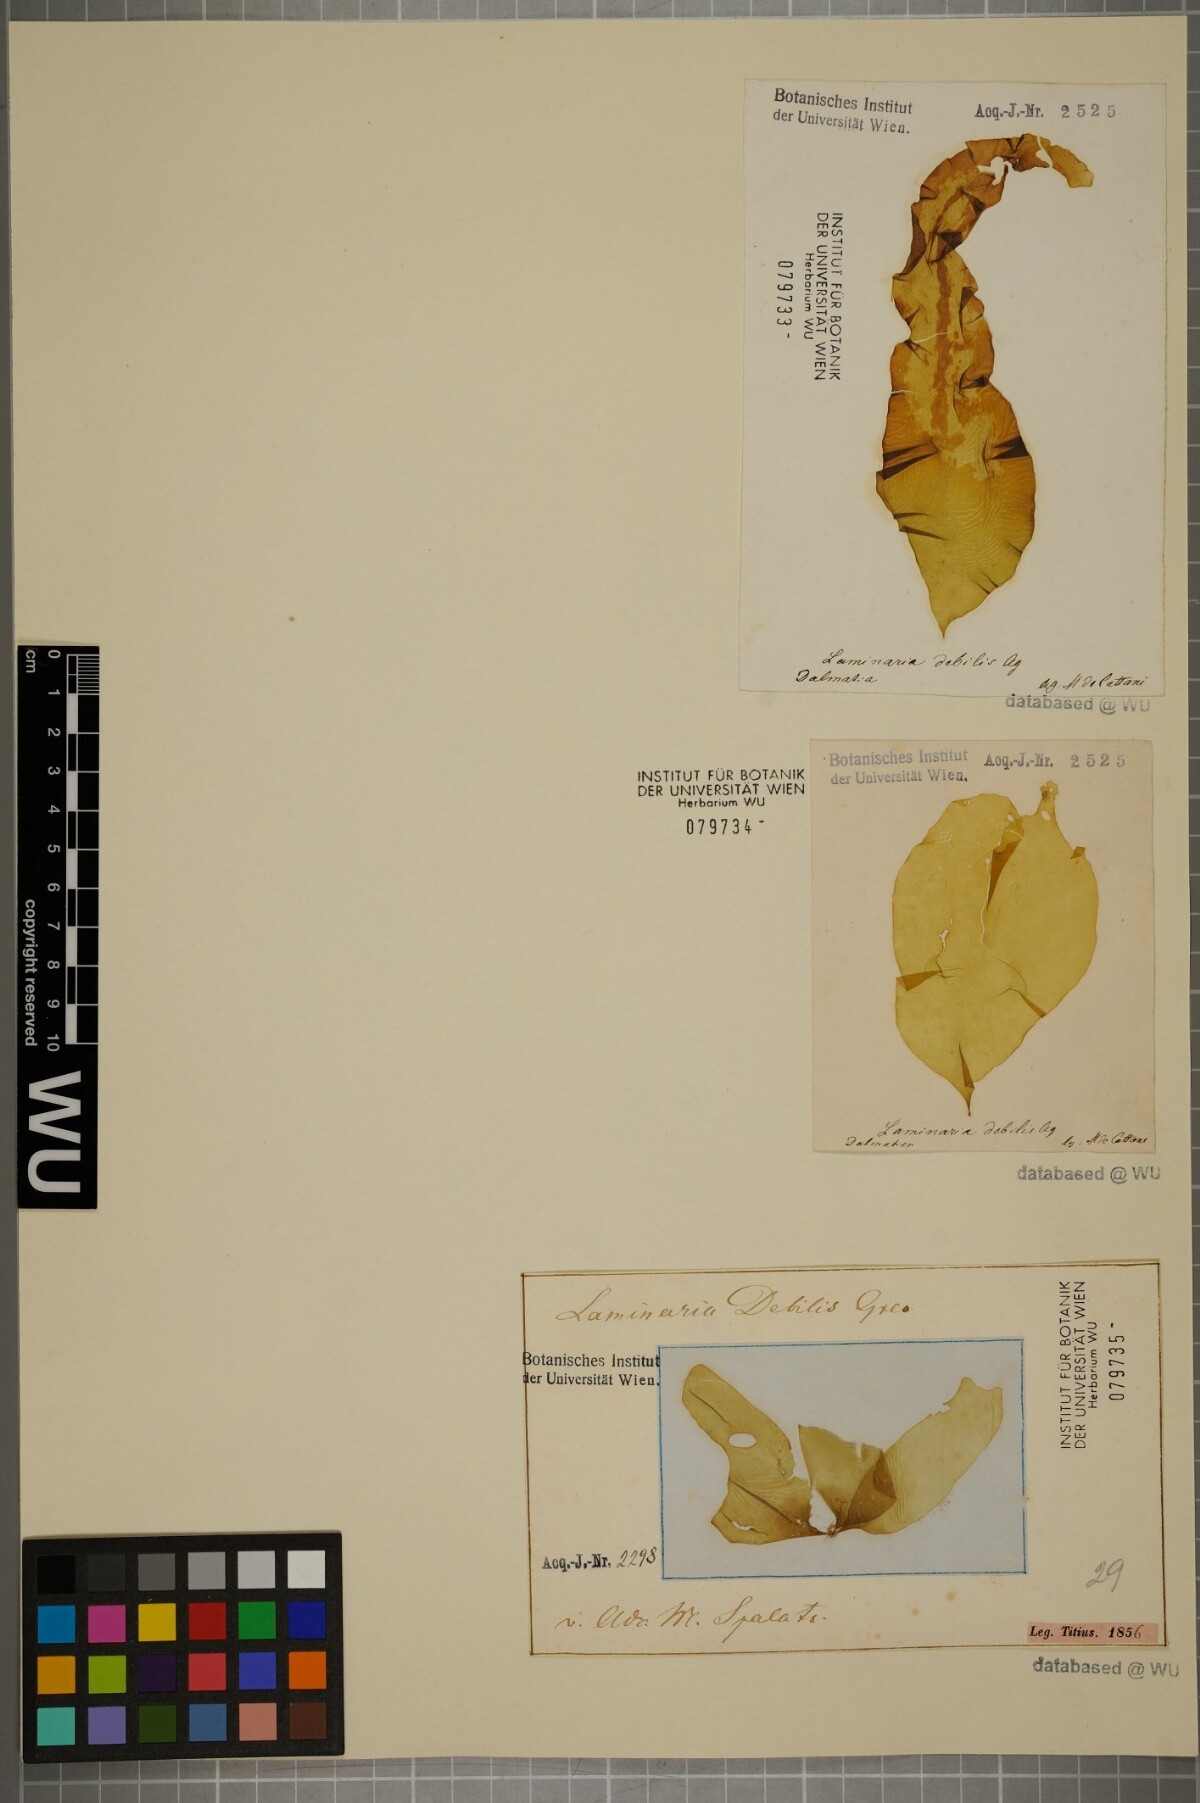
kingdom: Chromista
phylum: Ochrophyta
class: Phaeophyceae
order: Laminariales
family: Laminariaceae
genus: Laminaria
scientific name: Laminaria
